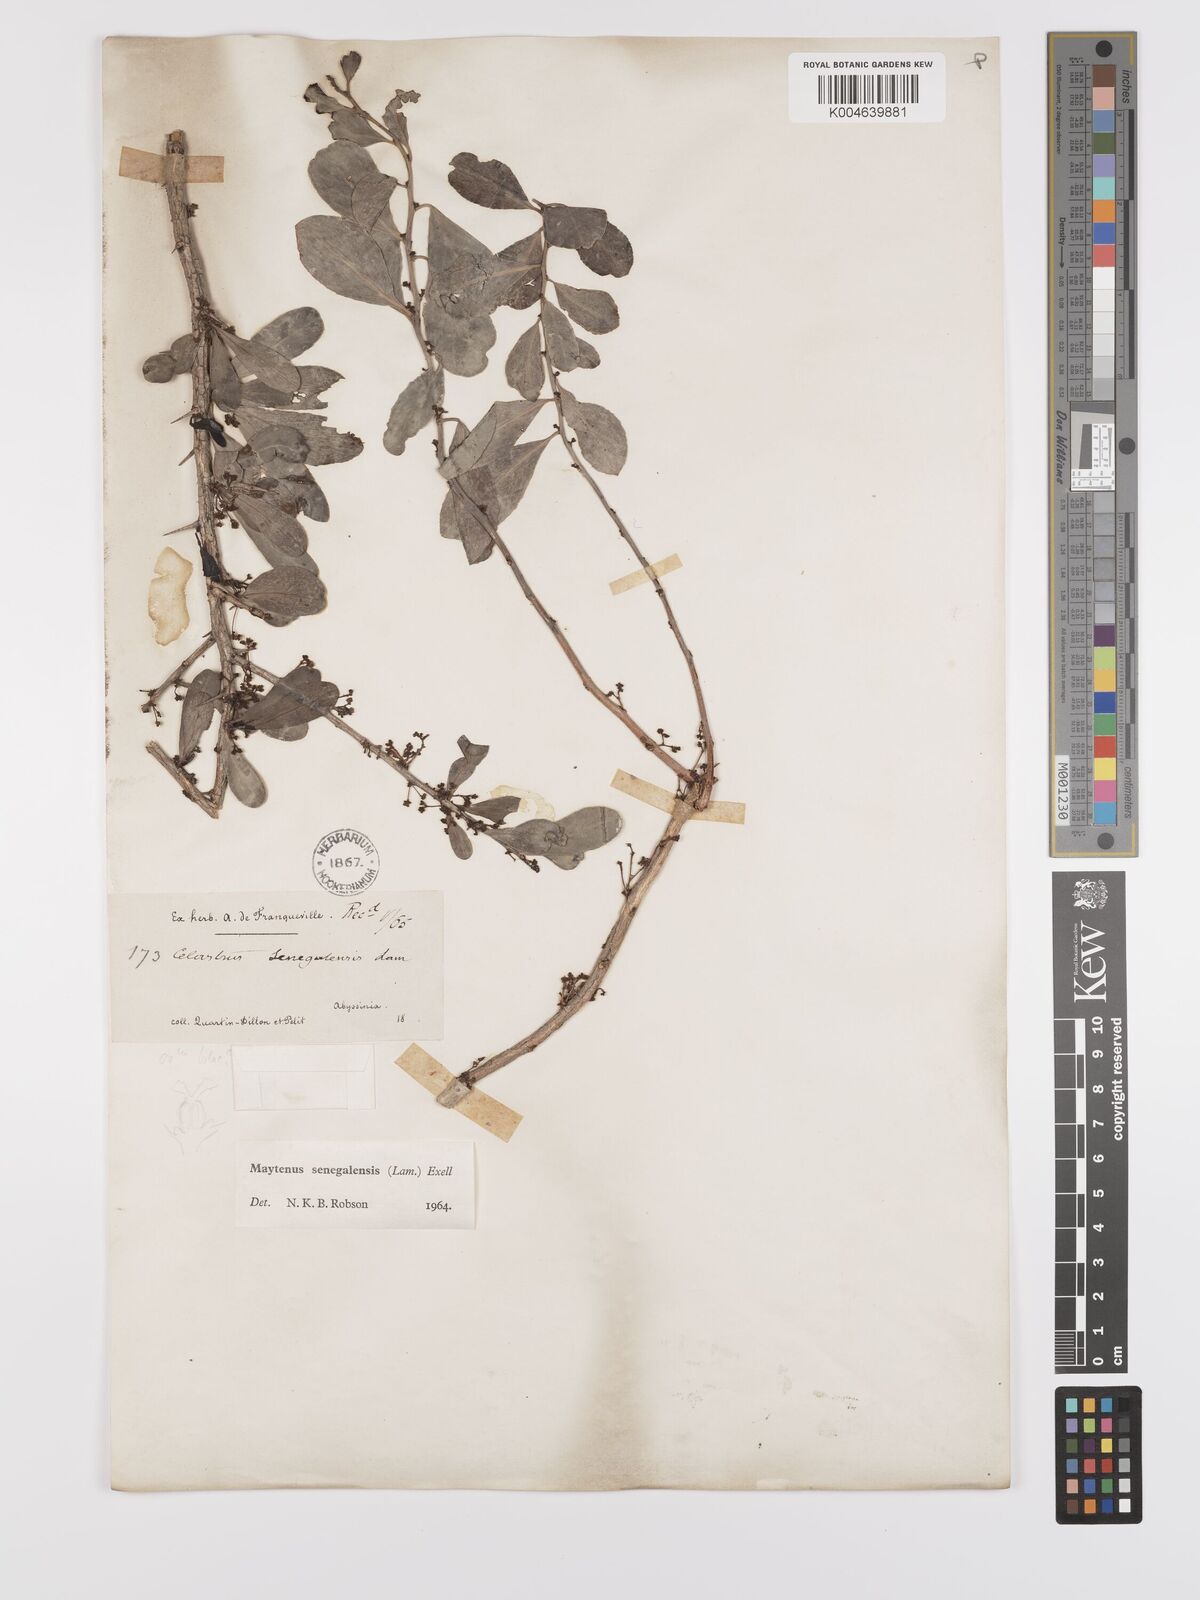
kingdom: Plantae
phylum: Tracheophyta
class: Magnoliopsida
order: Celastrales
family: Celastraceae
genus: Gymnosporia
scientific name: Gymnosporia senegalensis
